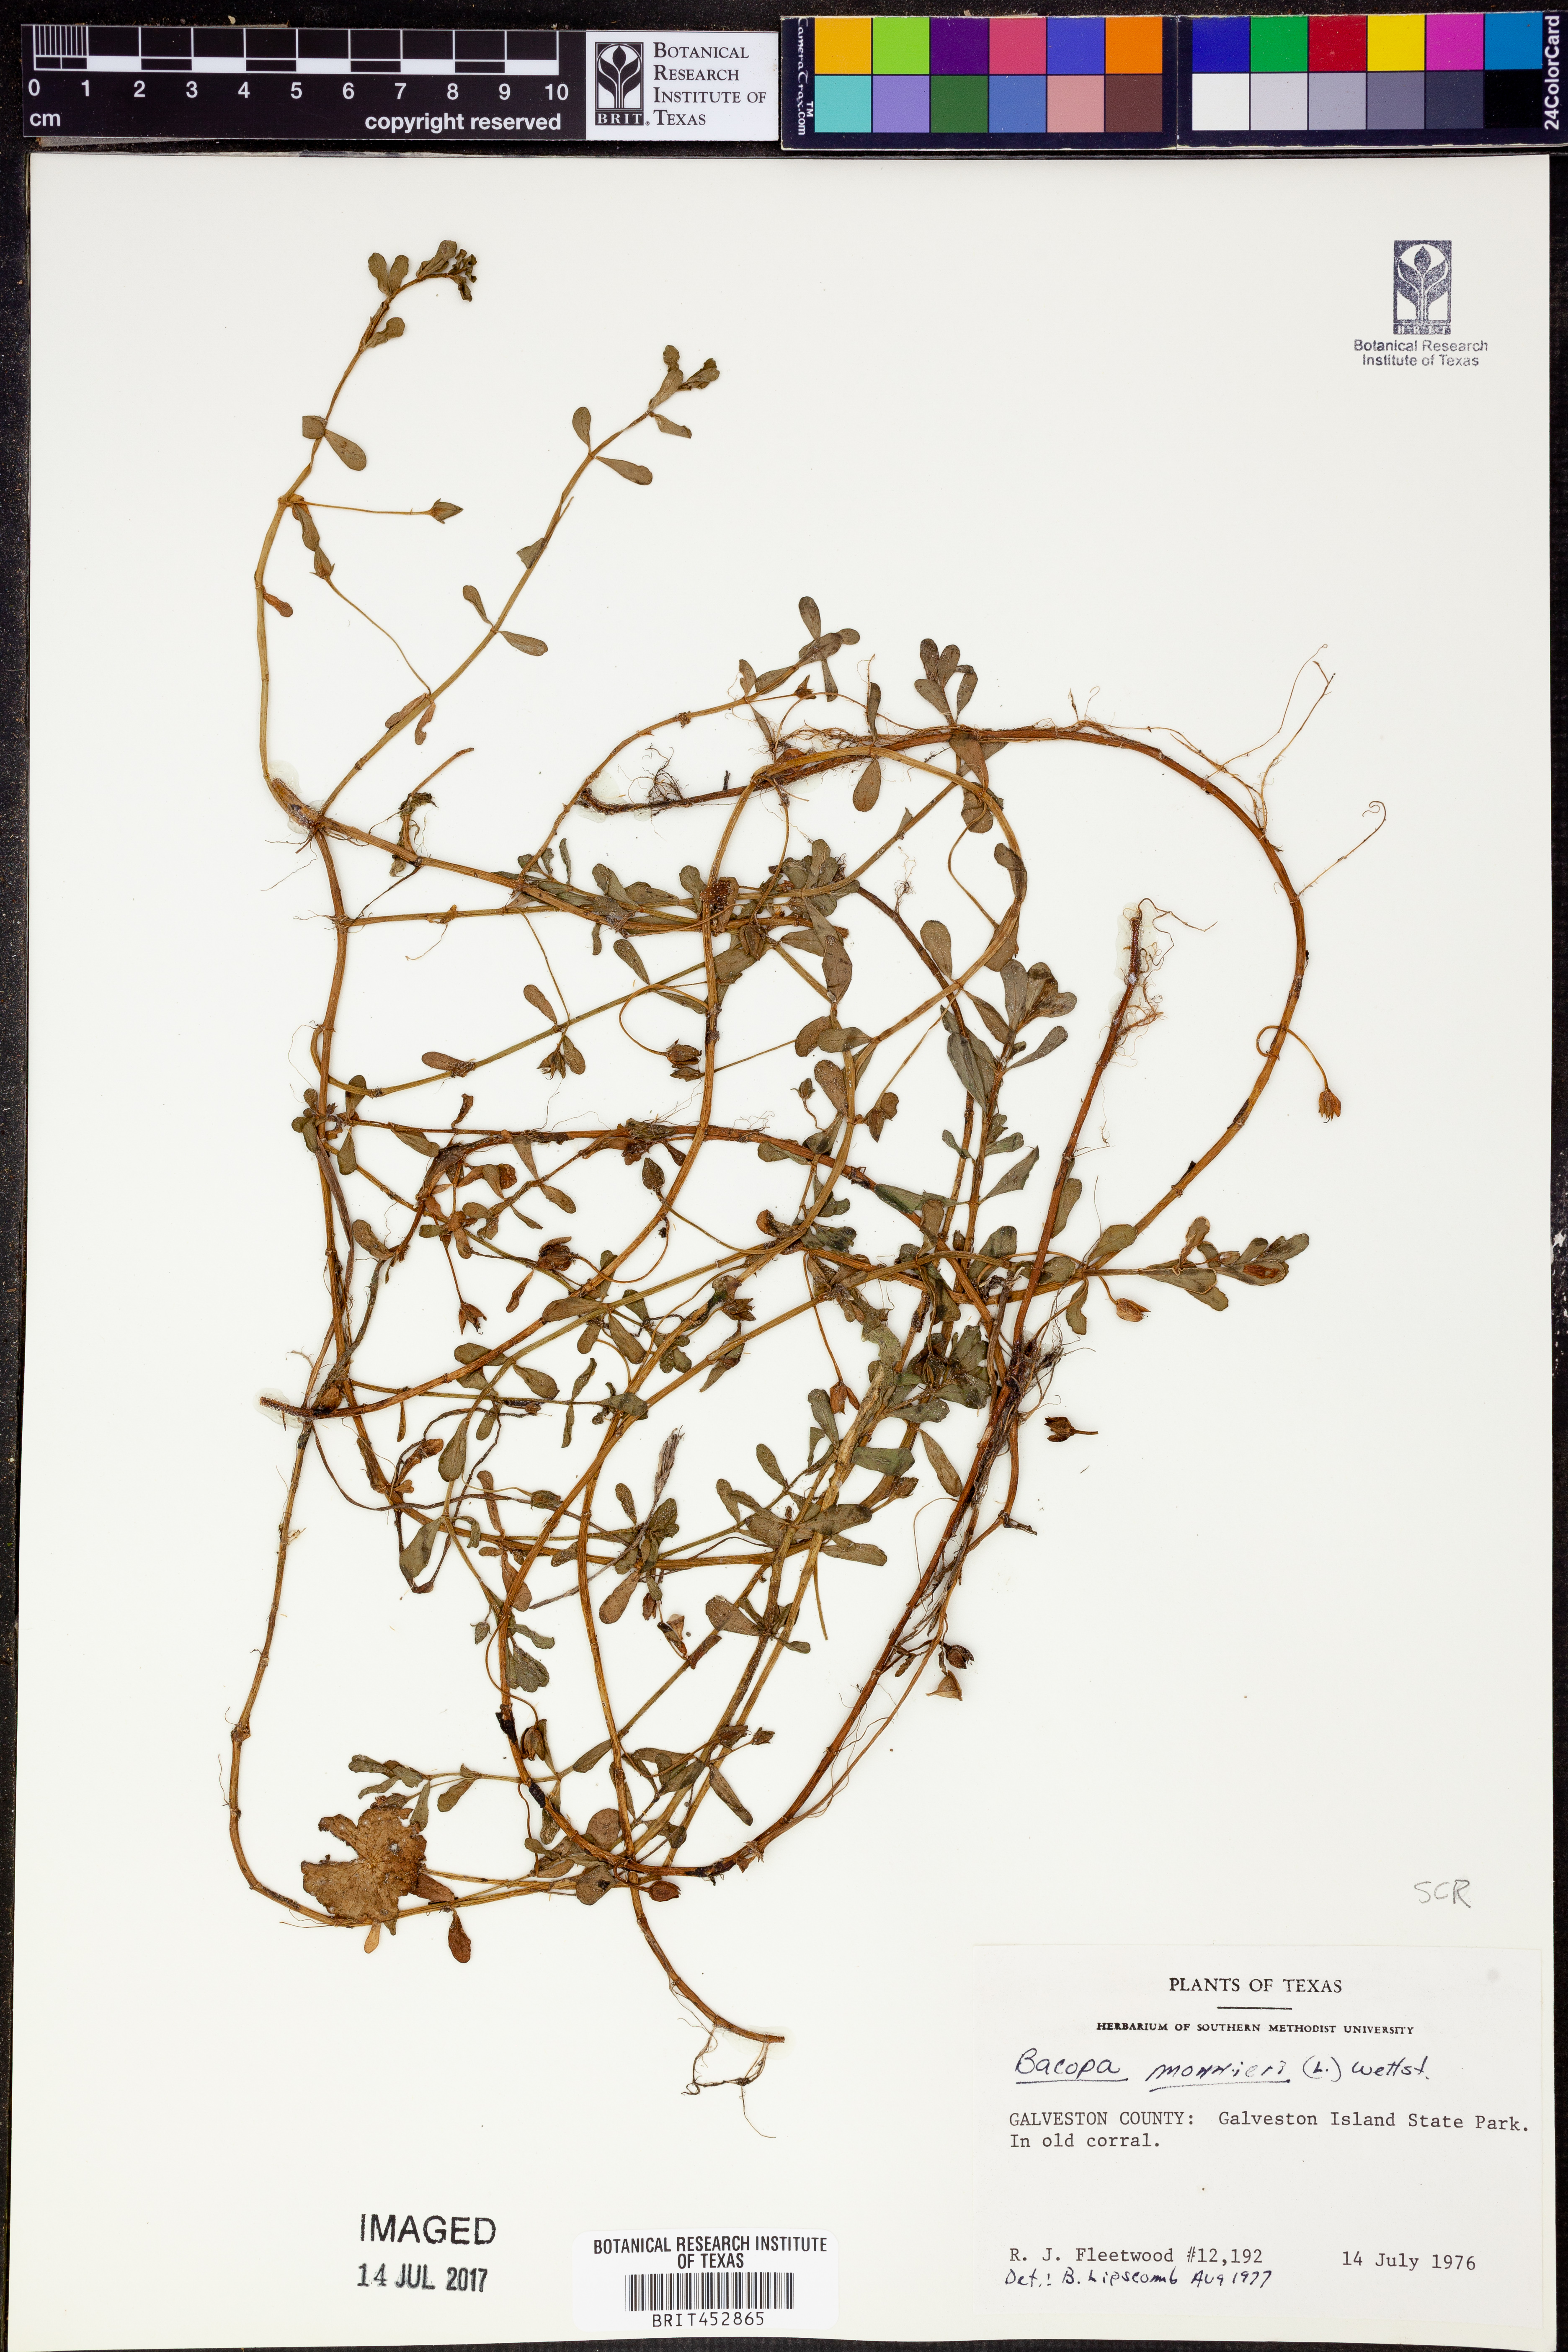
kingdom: Plantae
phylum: Tracheophyta
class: Magnoliopsida
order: Lamiales
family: Plantaginaceae
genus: Bacopa
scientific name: Bacopa monnieri
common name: Indian-pennywort
